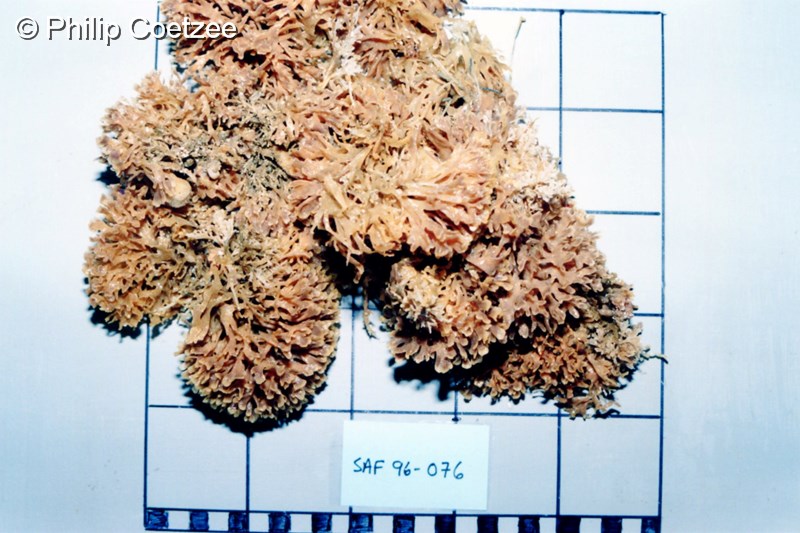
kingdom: Animalia
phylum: Bryozoa
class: Gymnolaemata
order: Cheilostomatida
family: Flustridae
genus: Gregarinidra
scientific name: Gregarinidra spinuligera
